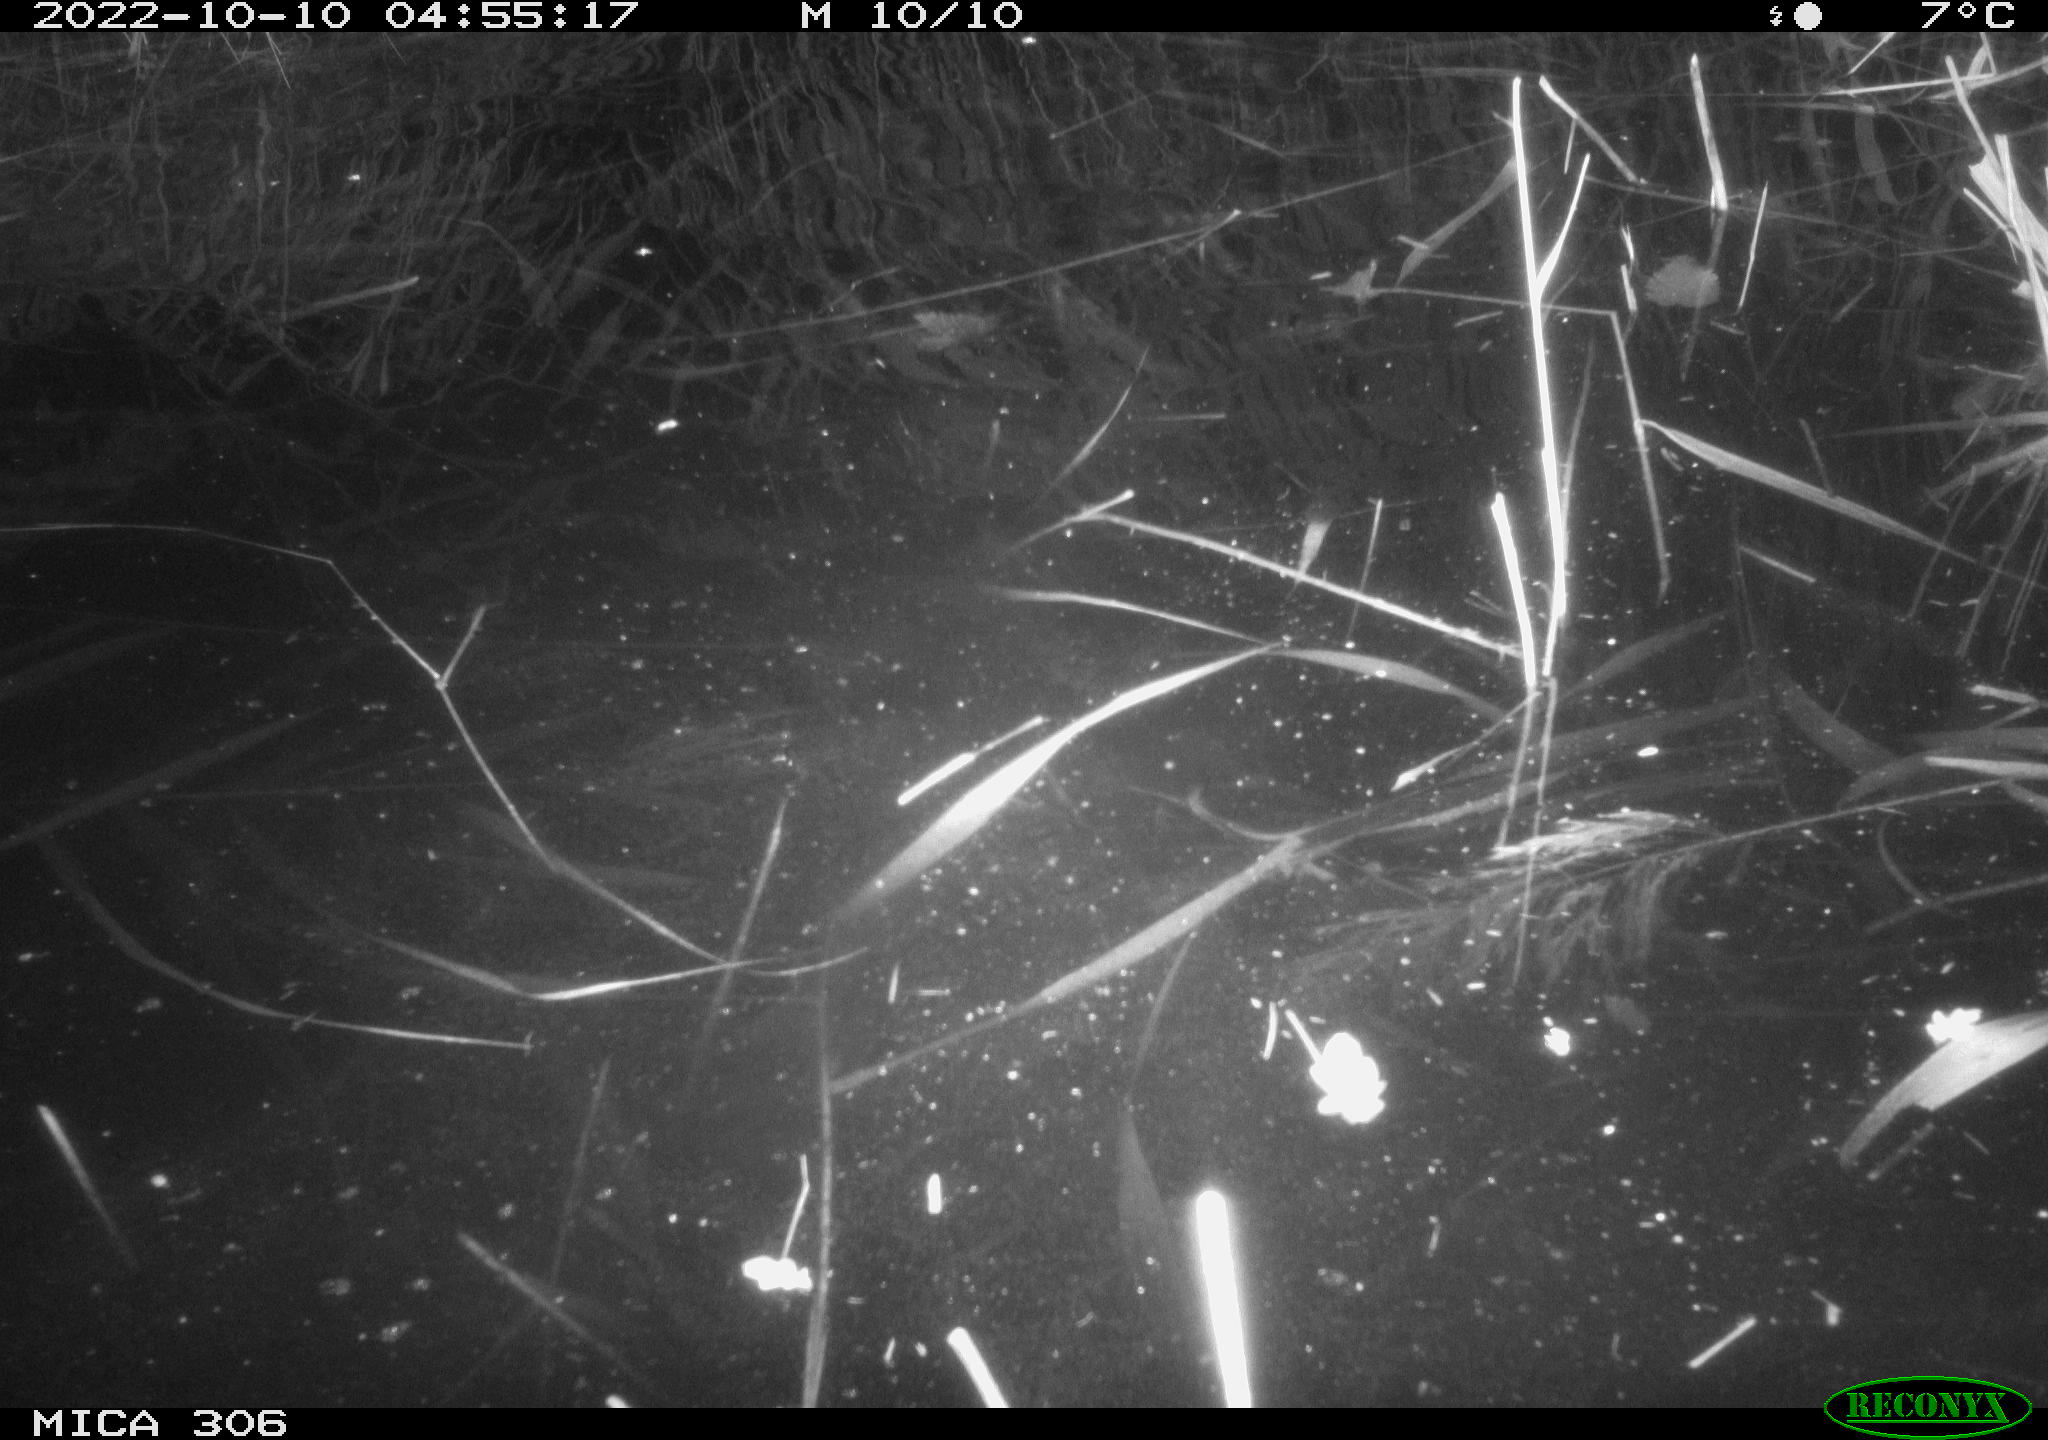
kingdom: Animalia
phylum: Chordata
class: Mammalia
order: Rodentia
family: Muridae
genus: Rattus
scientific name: Rattus norvegicus
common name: Brown rat
